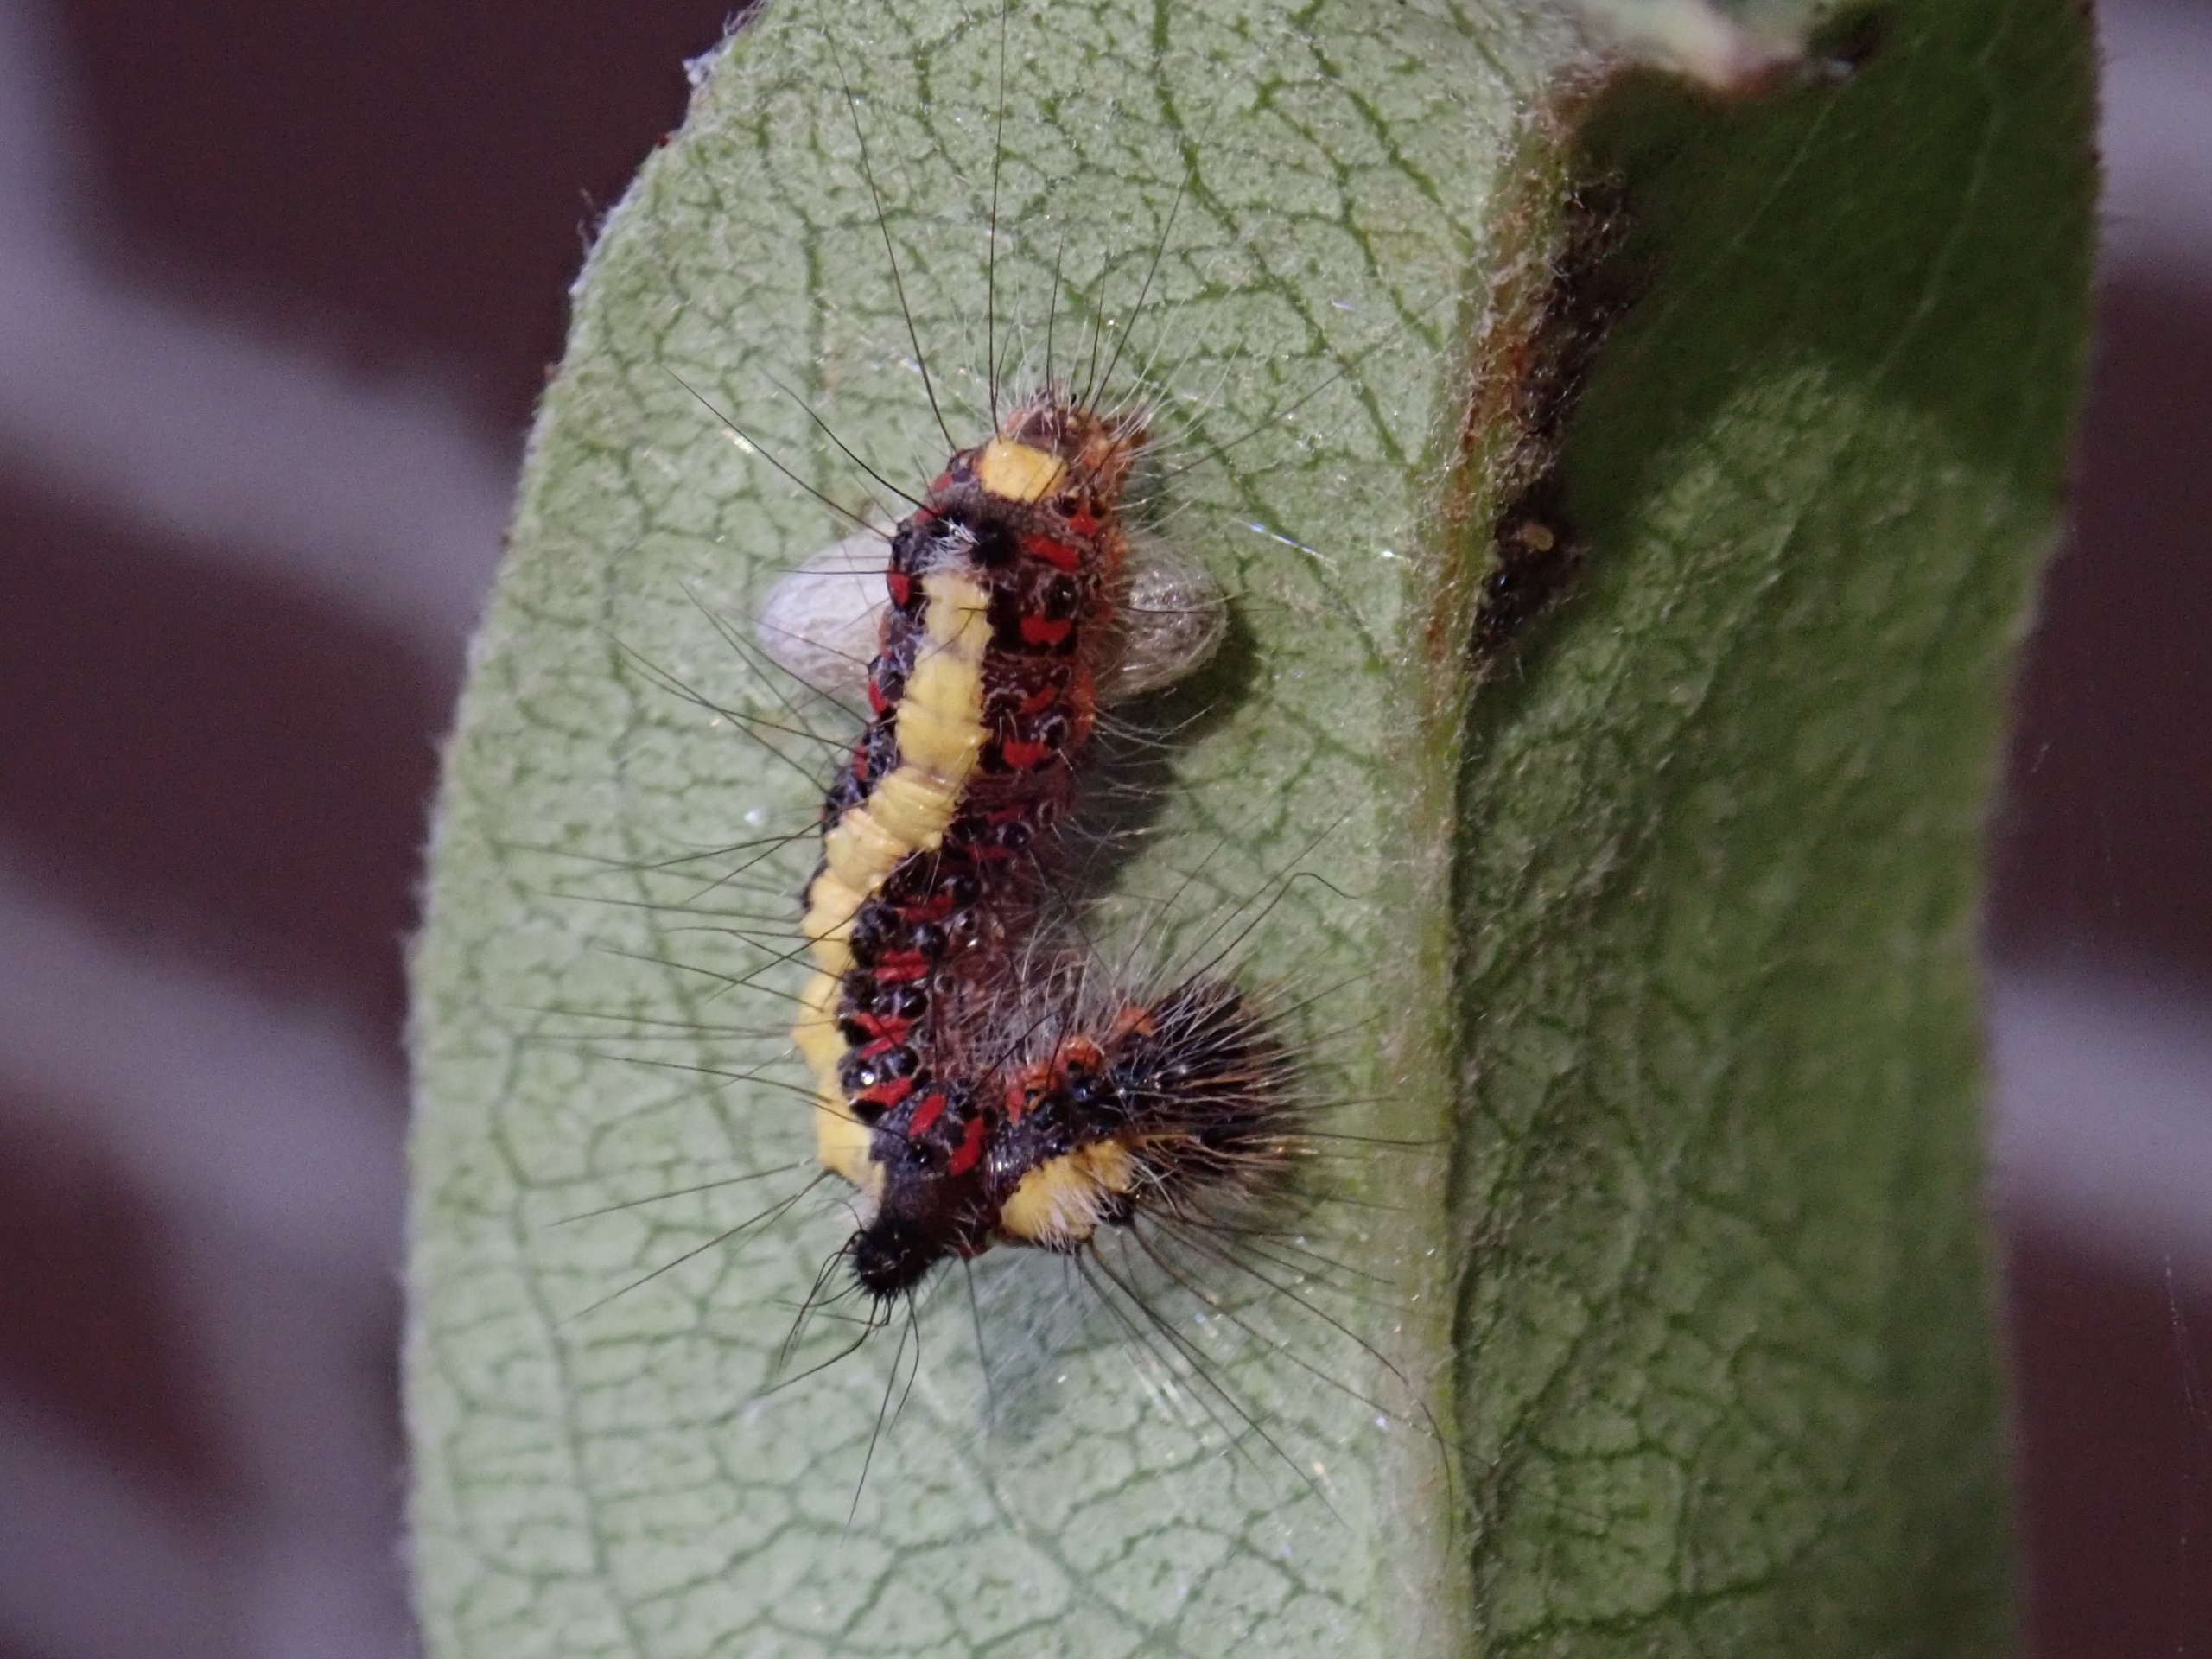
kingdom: Animalia
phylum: Arthropoda
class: Insecta
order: Lepidoptera
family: Noctuidae
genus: Acronicta
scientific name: Acronicta psi
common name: Psi-ugle
